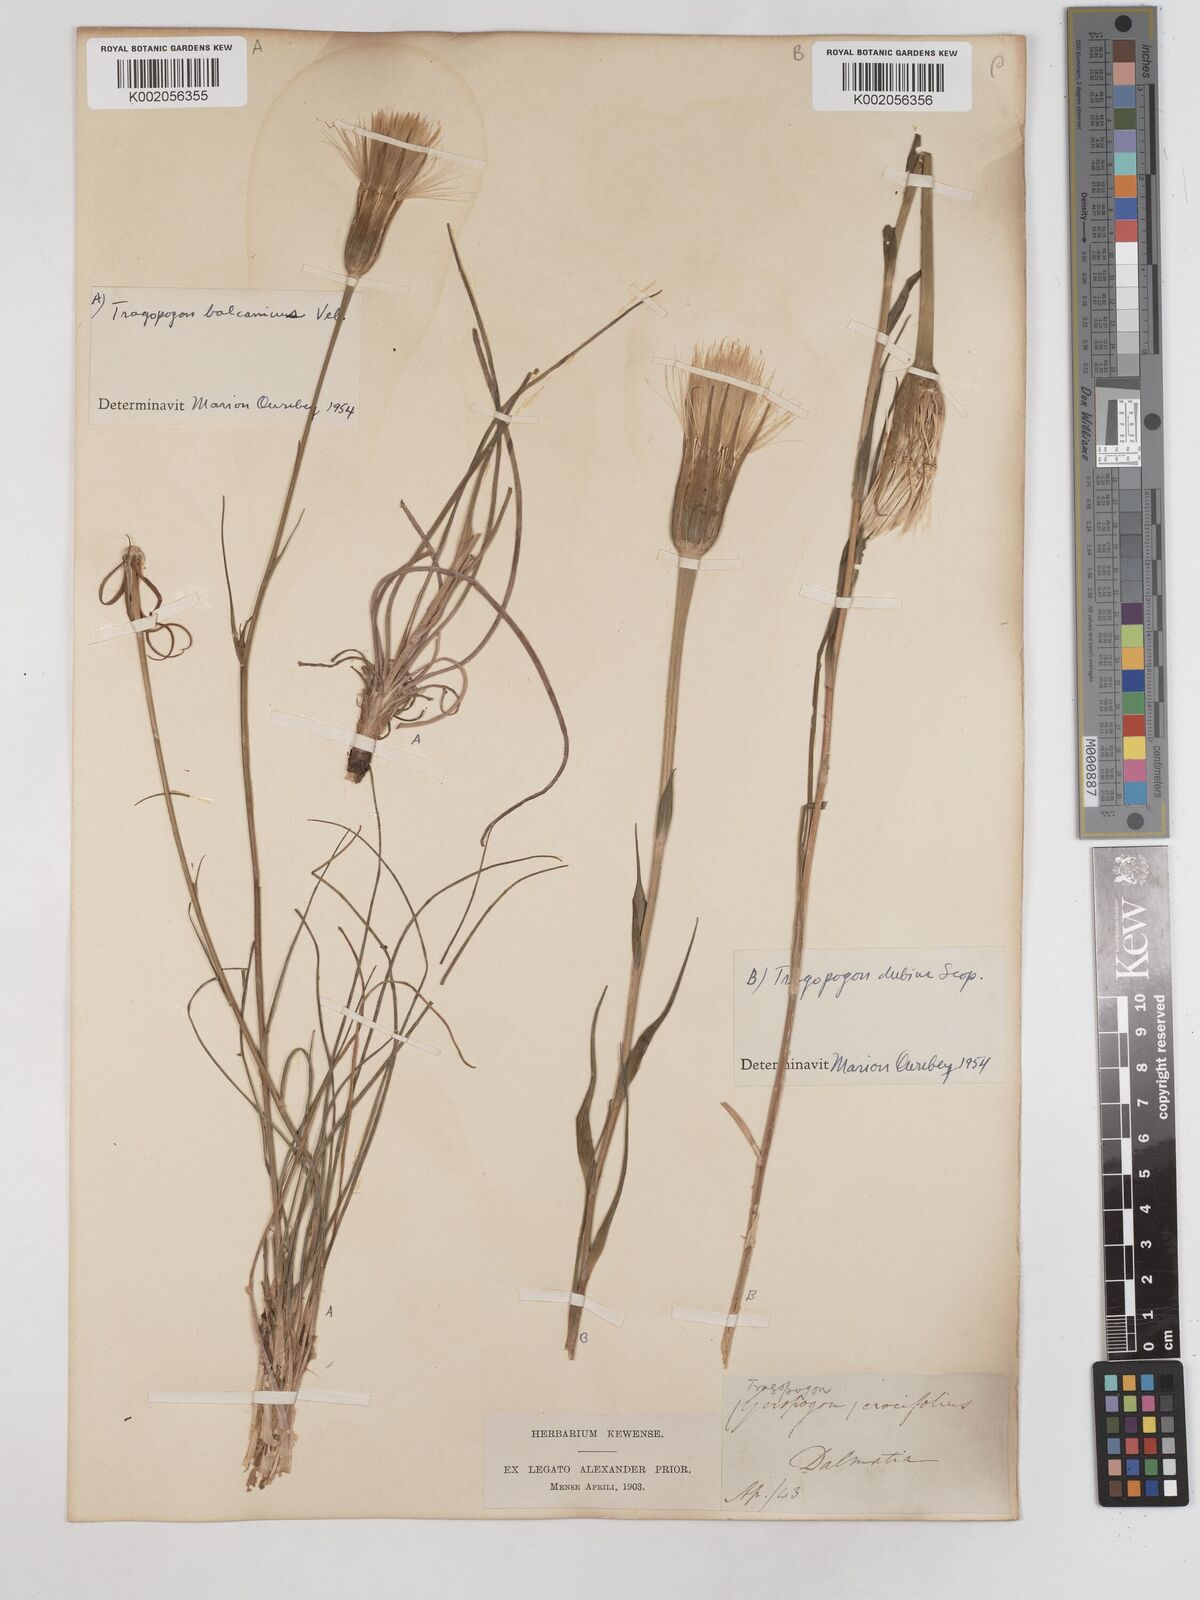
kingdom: Plantae
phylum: Tracheophyta
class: Magnoliopsida
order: Asterales
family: Asteraceae
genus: Tragopogon
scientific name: Tragopogon balcanicus
